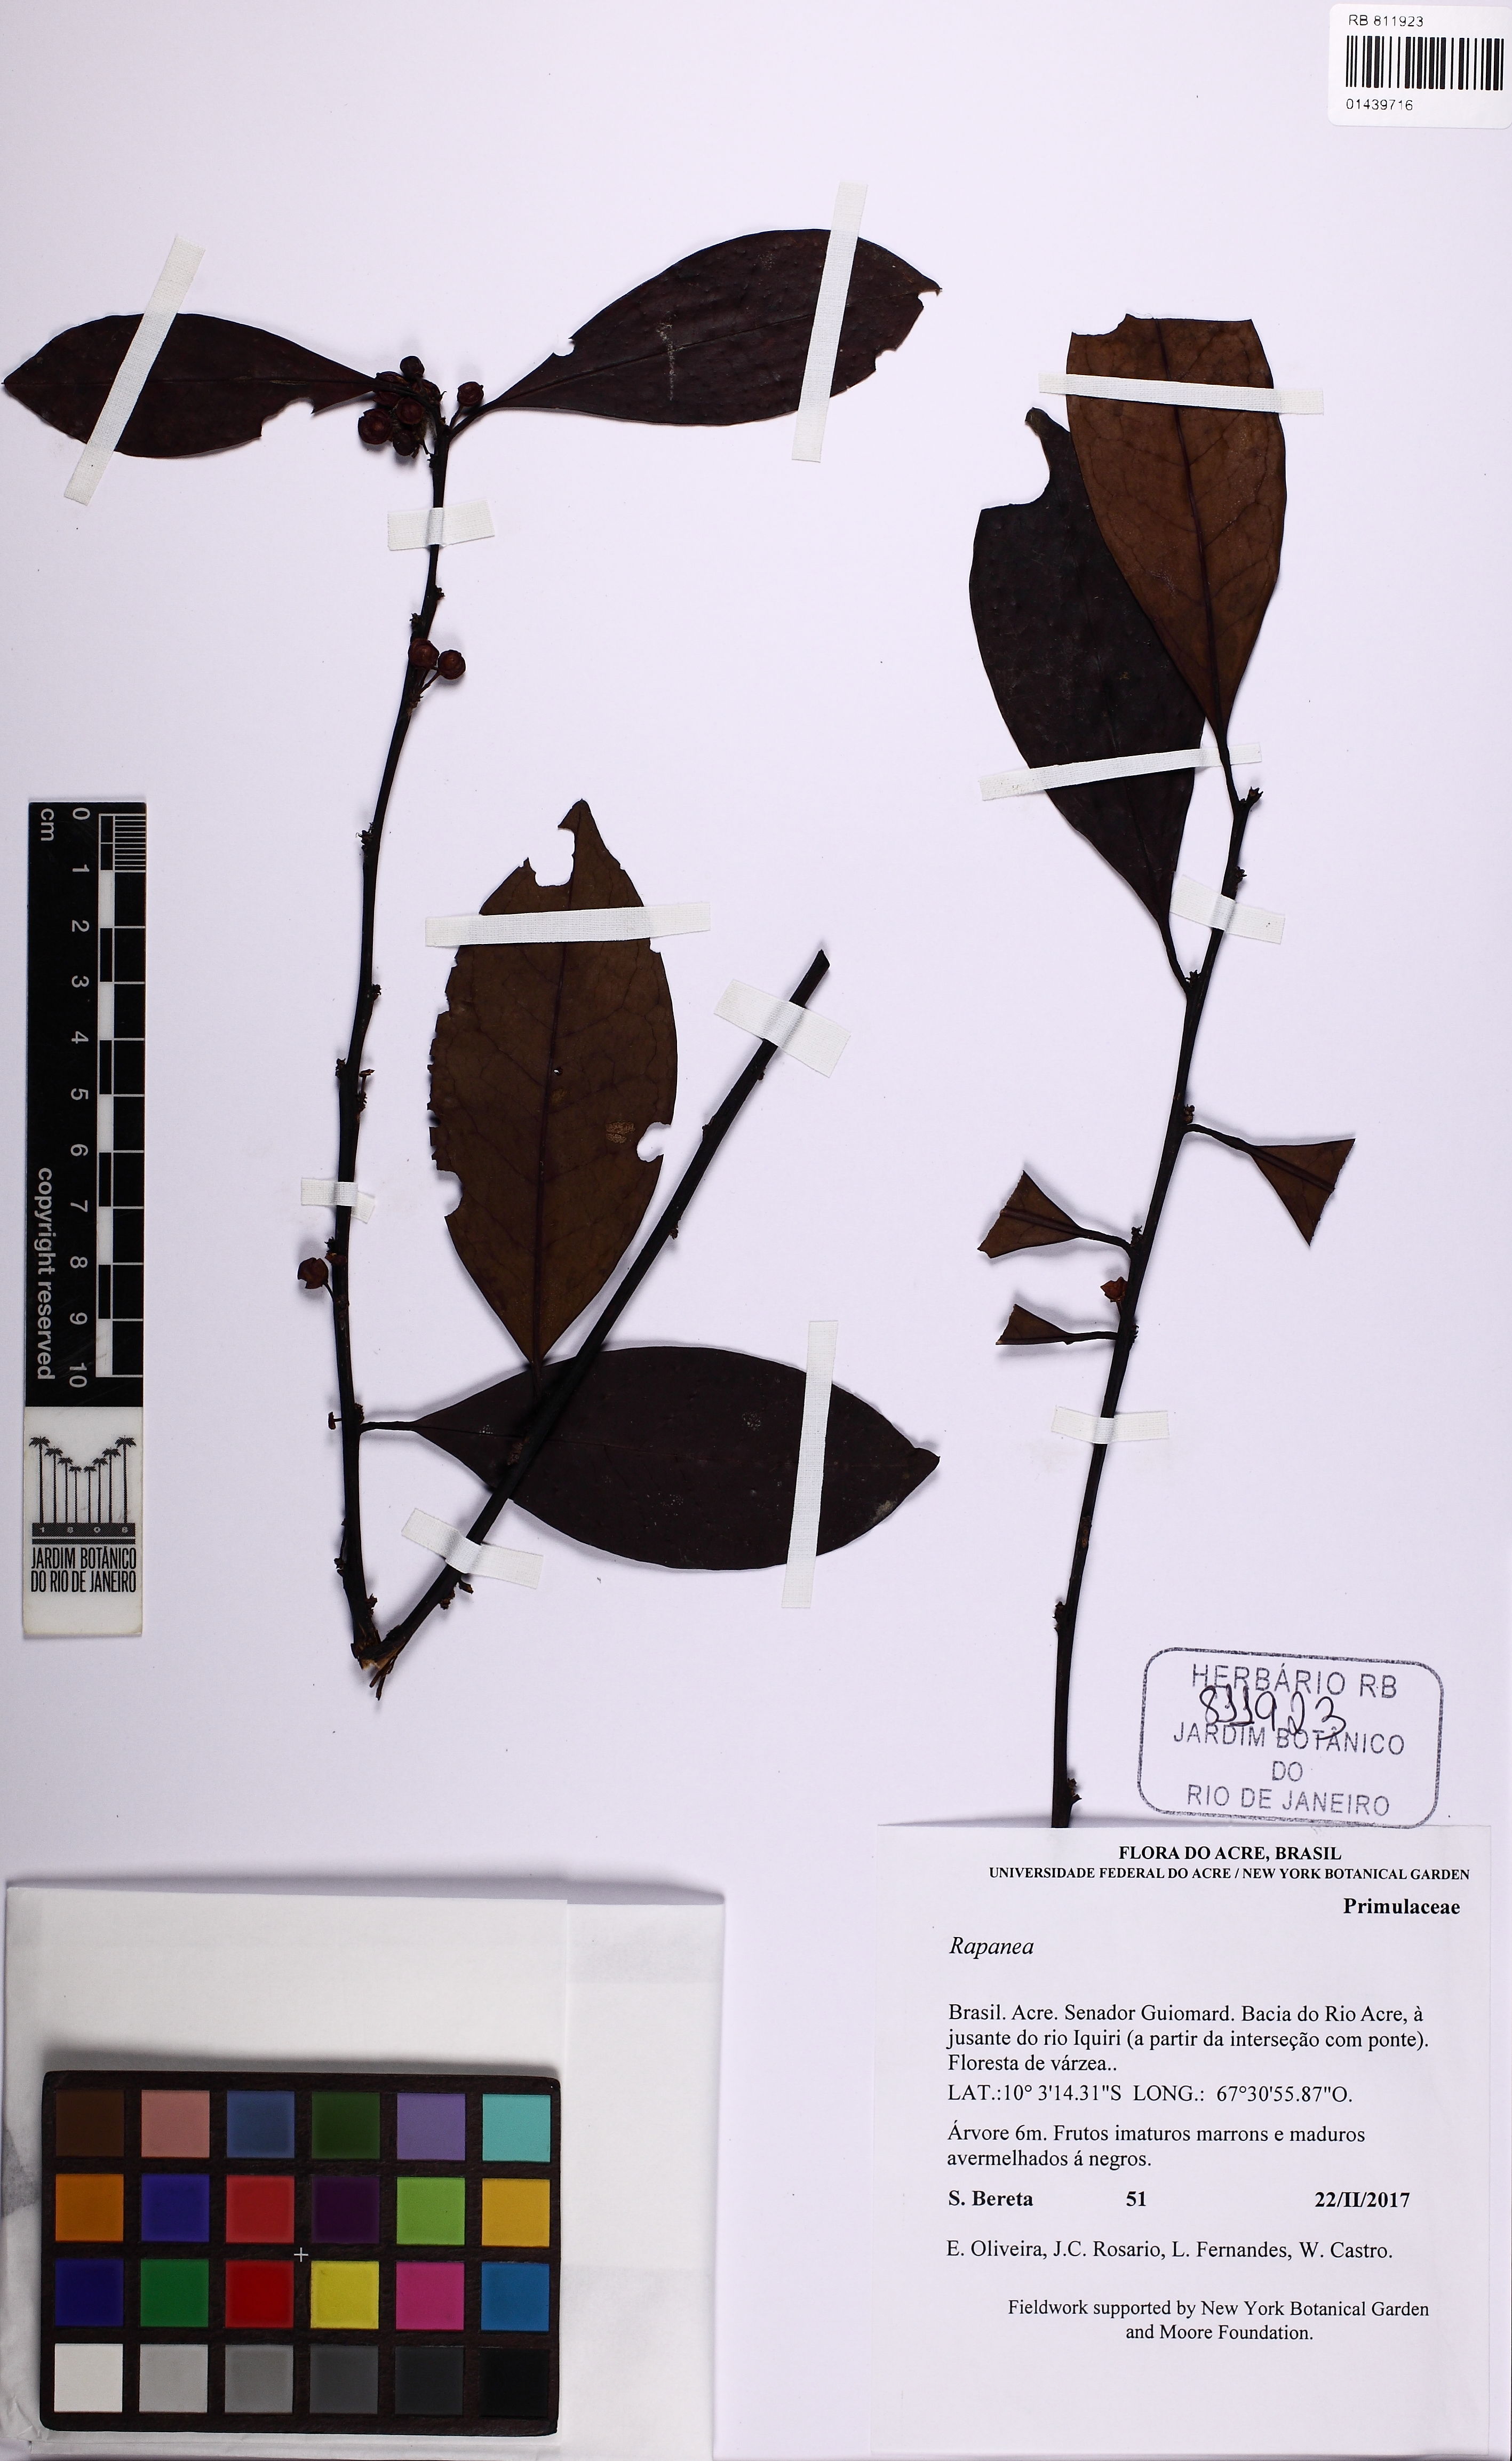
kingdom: Plantae
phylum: Tracheophyta
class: Magnoliopsida
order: Ericales
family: Primulaceae
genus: Myrsine
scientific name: Myrsine
